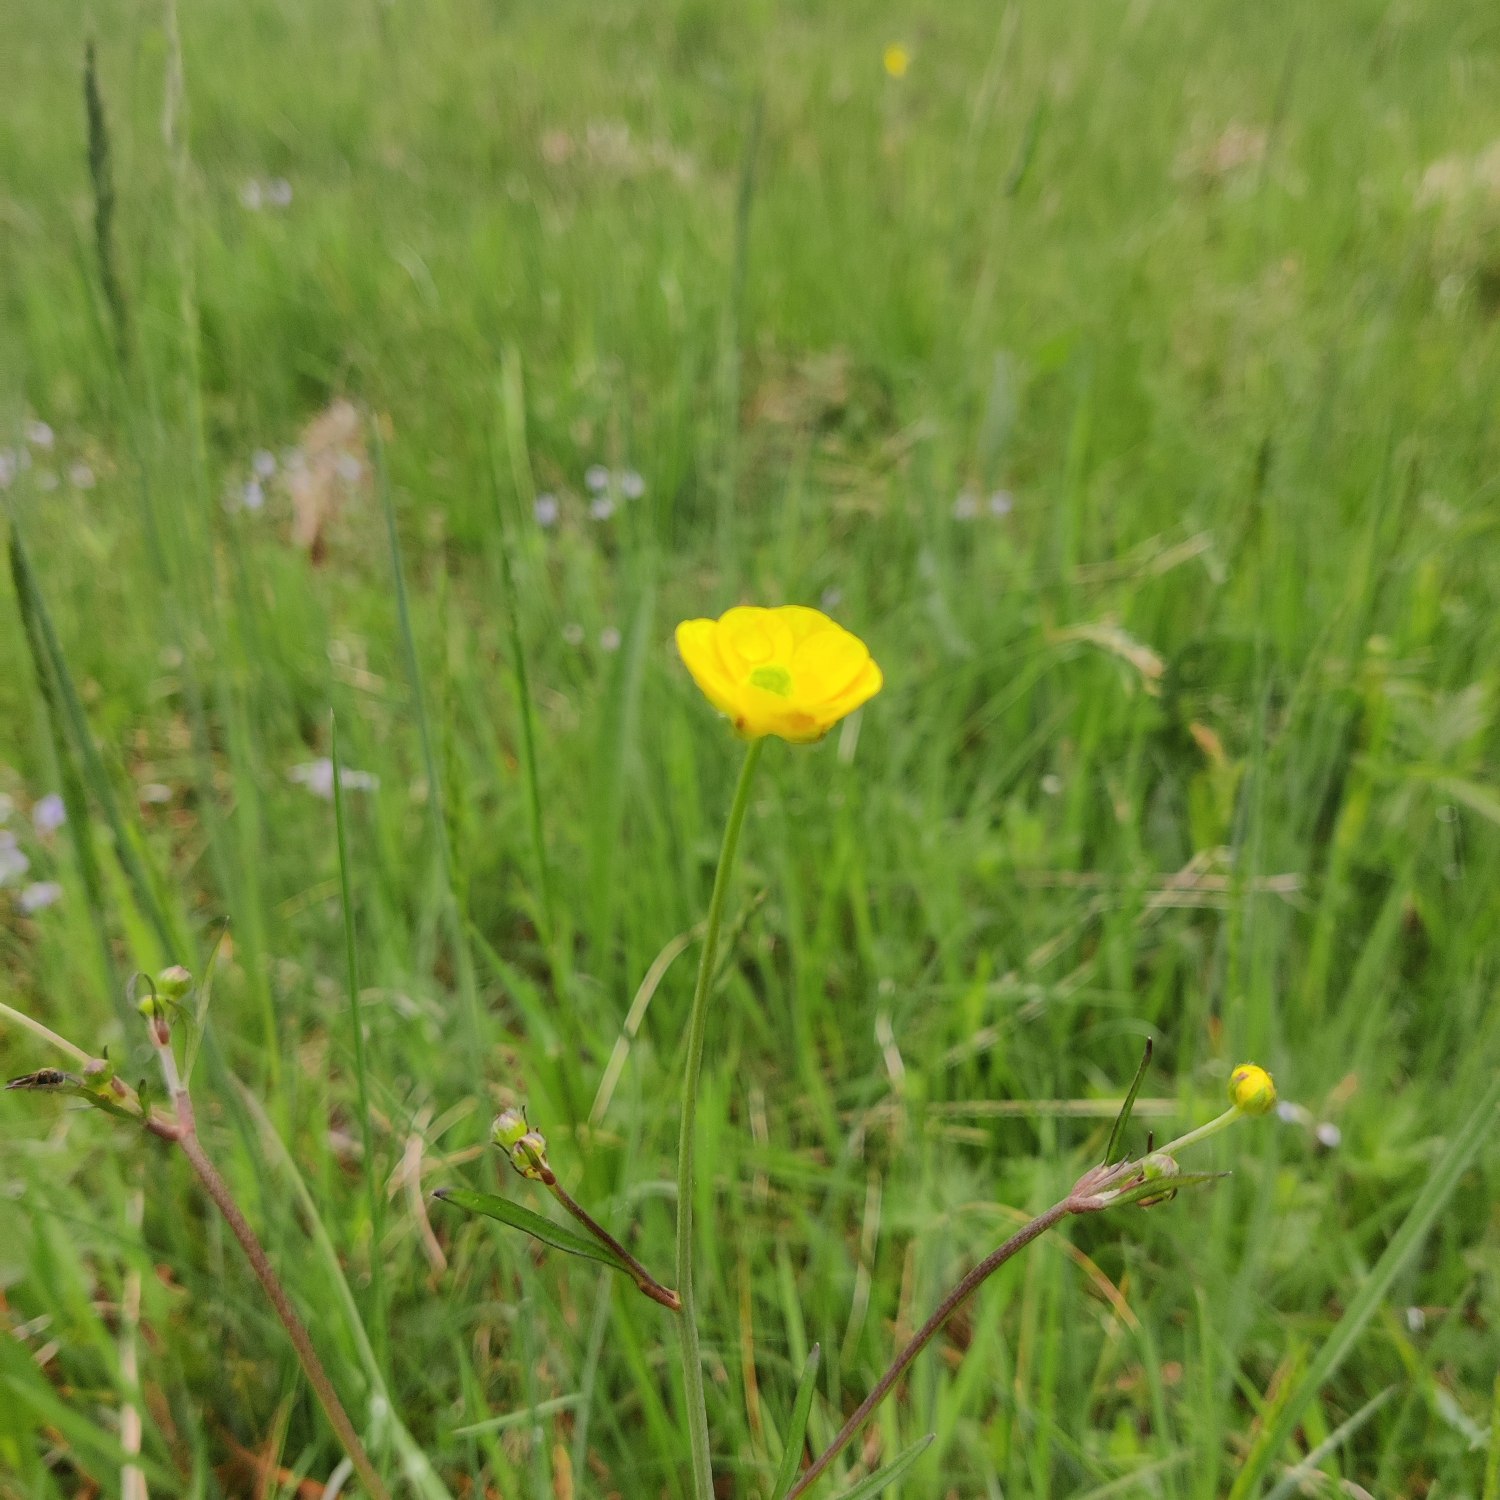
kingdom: Plantae
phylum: Tracheophyta
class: Magnoliopsida
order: Ranunculales
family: Ranunculaceae
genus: Ranunculus
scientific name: Ranunculus acris
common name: Bidende ranunkel
